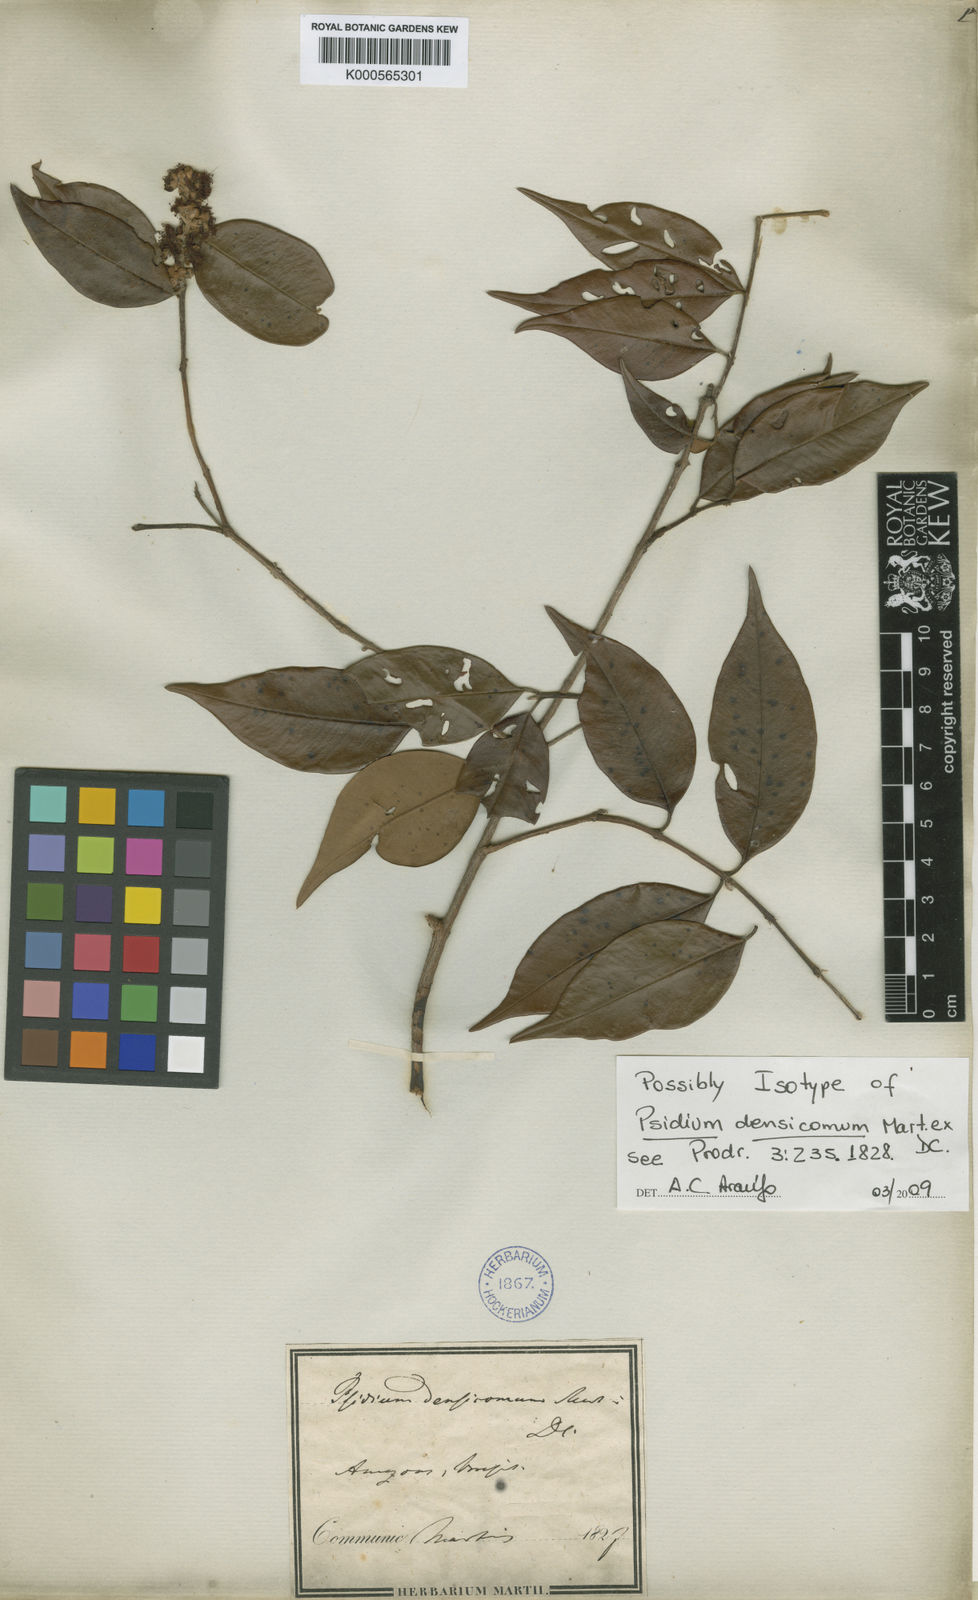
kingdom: Plantae
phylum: Tracheophyta
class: Magnoliopsida
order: Myrtales
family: Myrtaceae
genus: Psidium
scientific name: Psidium densicomum
